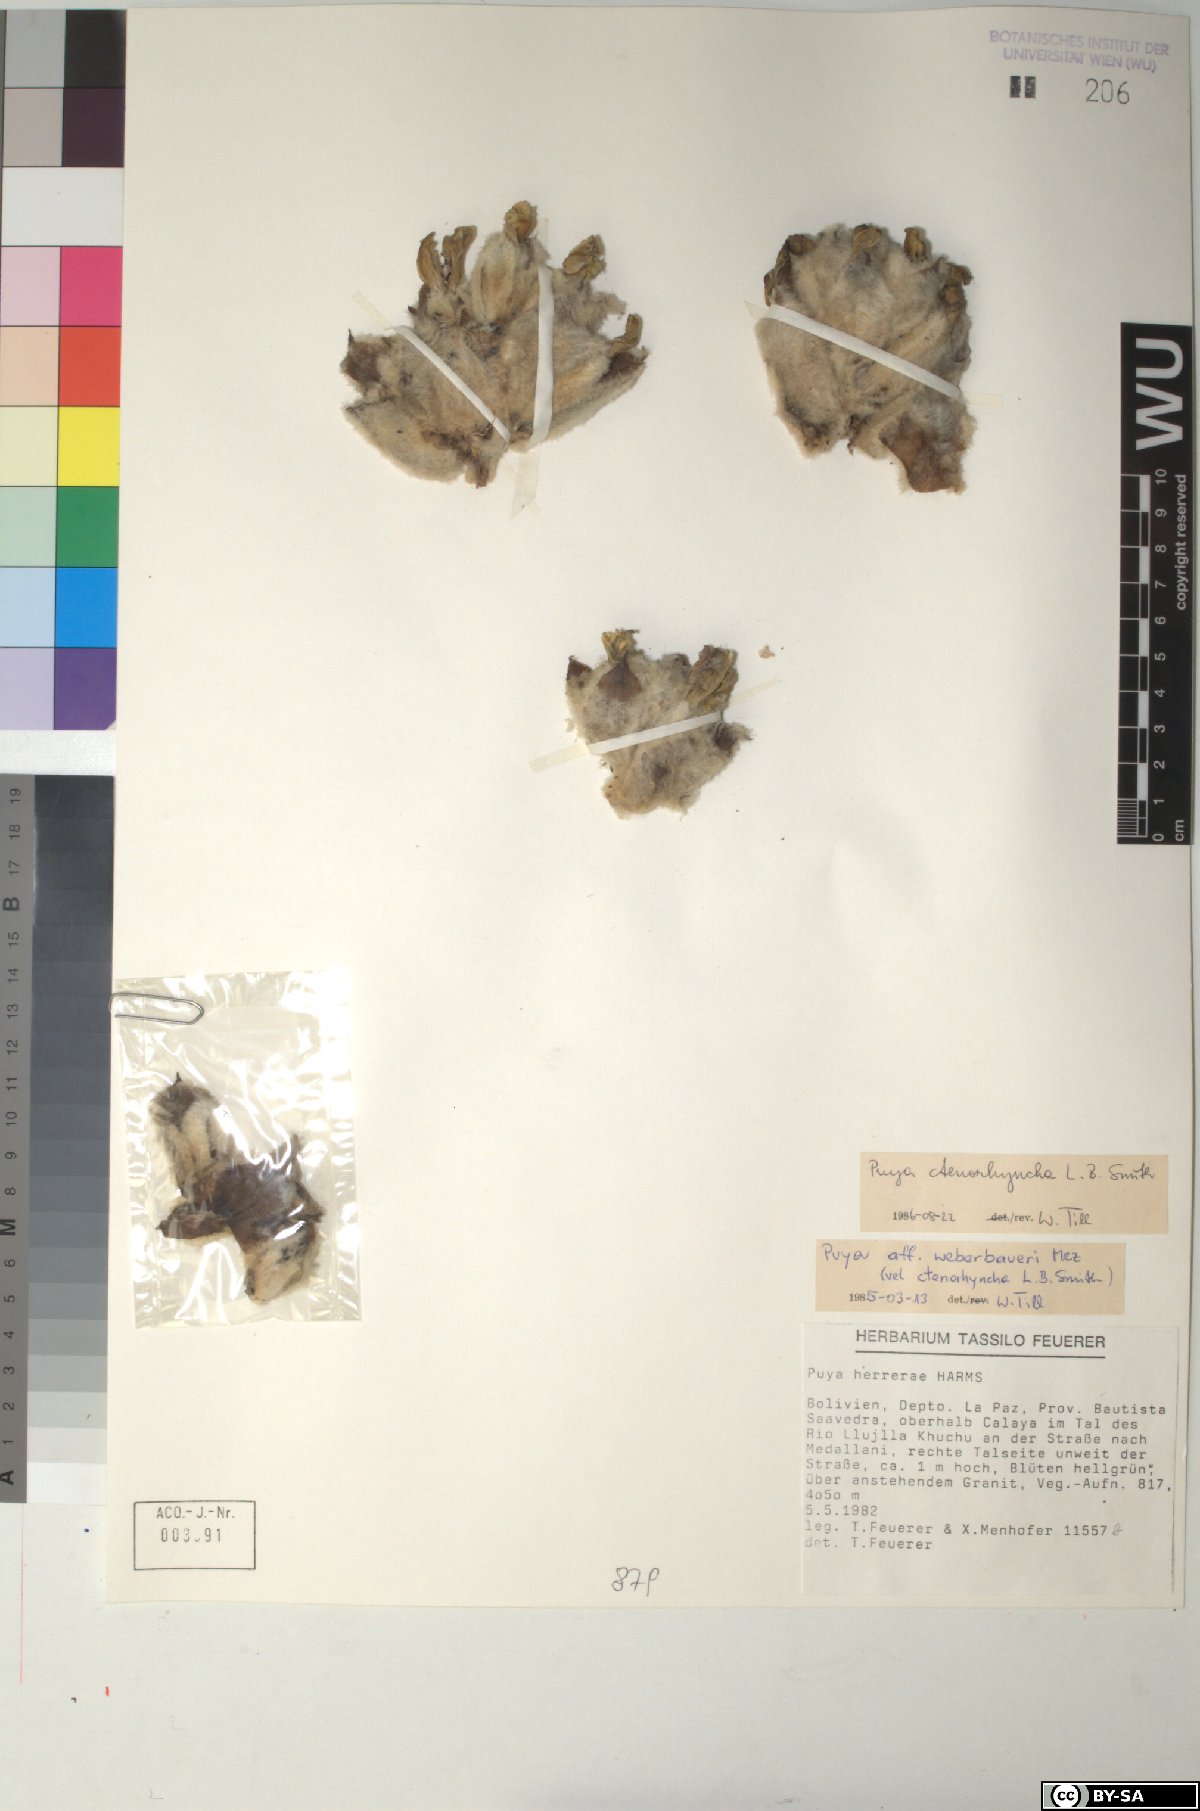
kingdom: Plantae
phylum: Tracheophyta
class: Liliopsida
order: Poales
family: Bromeliaceae
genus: Puya
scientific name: Puya ctenorhyncha
